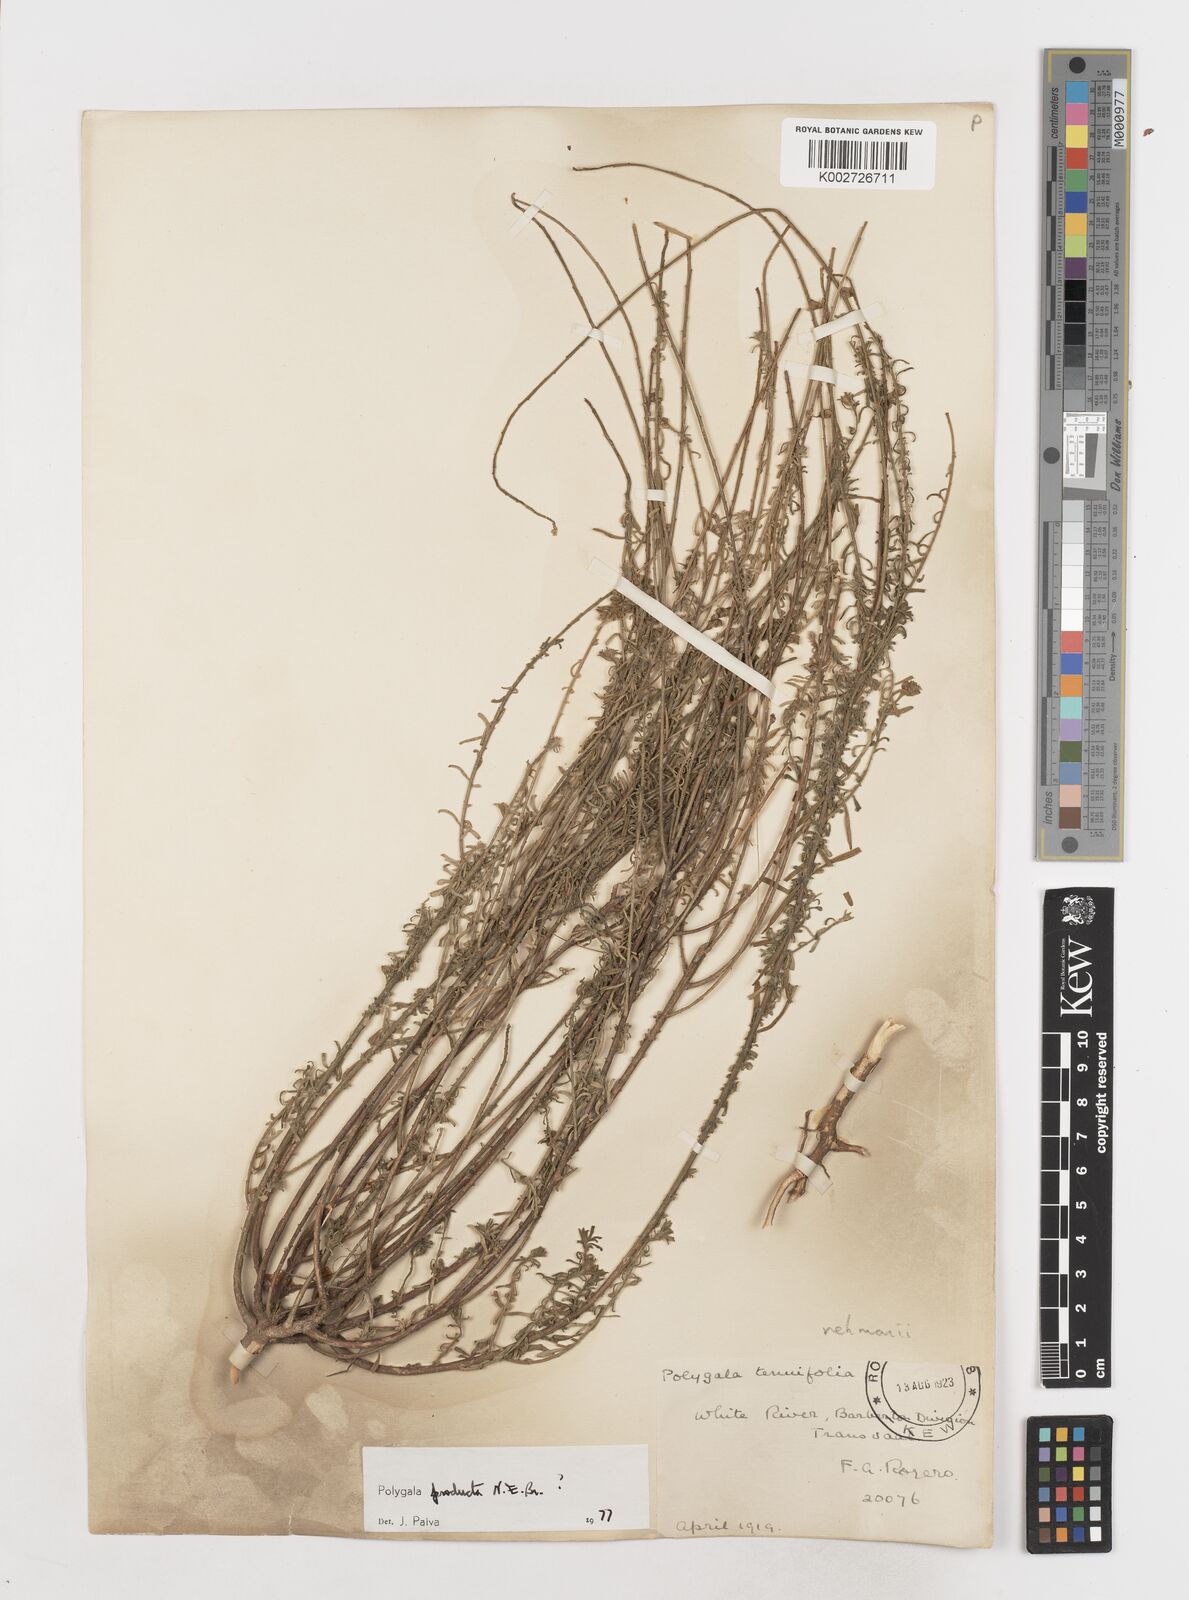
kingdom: Plantae
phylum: Tracheophyta
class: Magnoliopsida
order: Fabales
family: Polygalaceae
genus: Polygala
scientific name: Polygala producta
